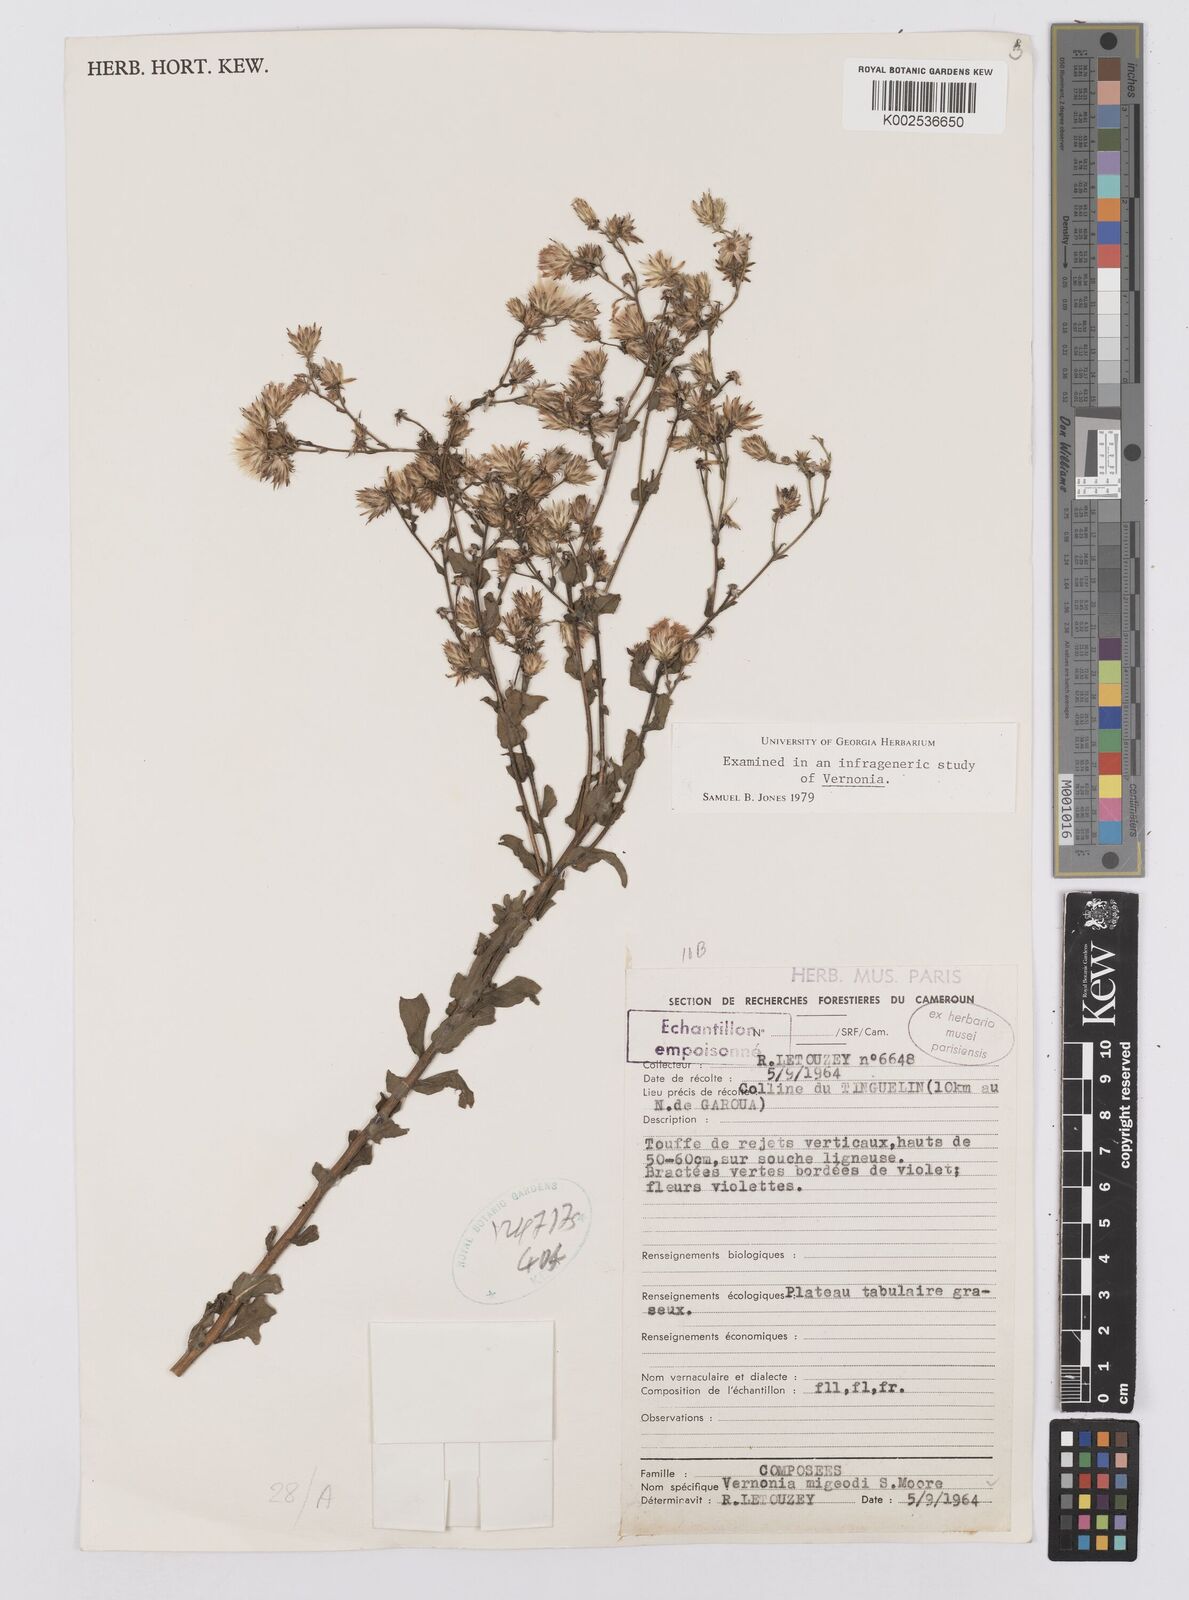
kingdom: Plantae
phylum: Tracheophyta
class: Magnoliopsida
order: Asterales
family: Asteraceae
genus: Vernoniastrum
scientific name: Vernoniastrum migeodii
